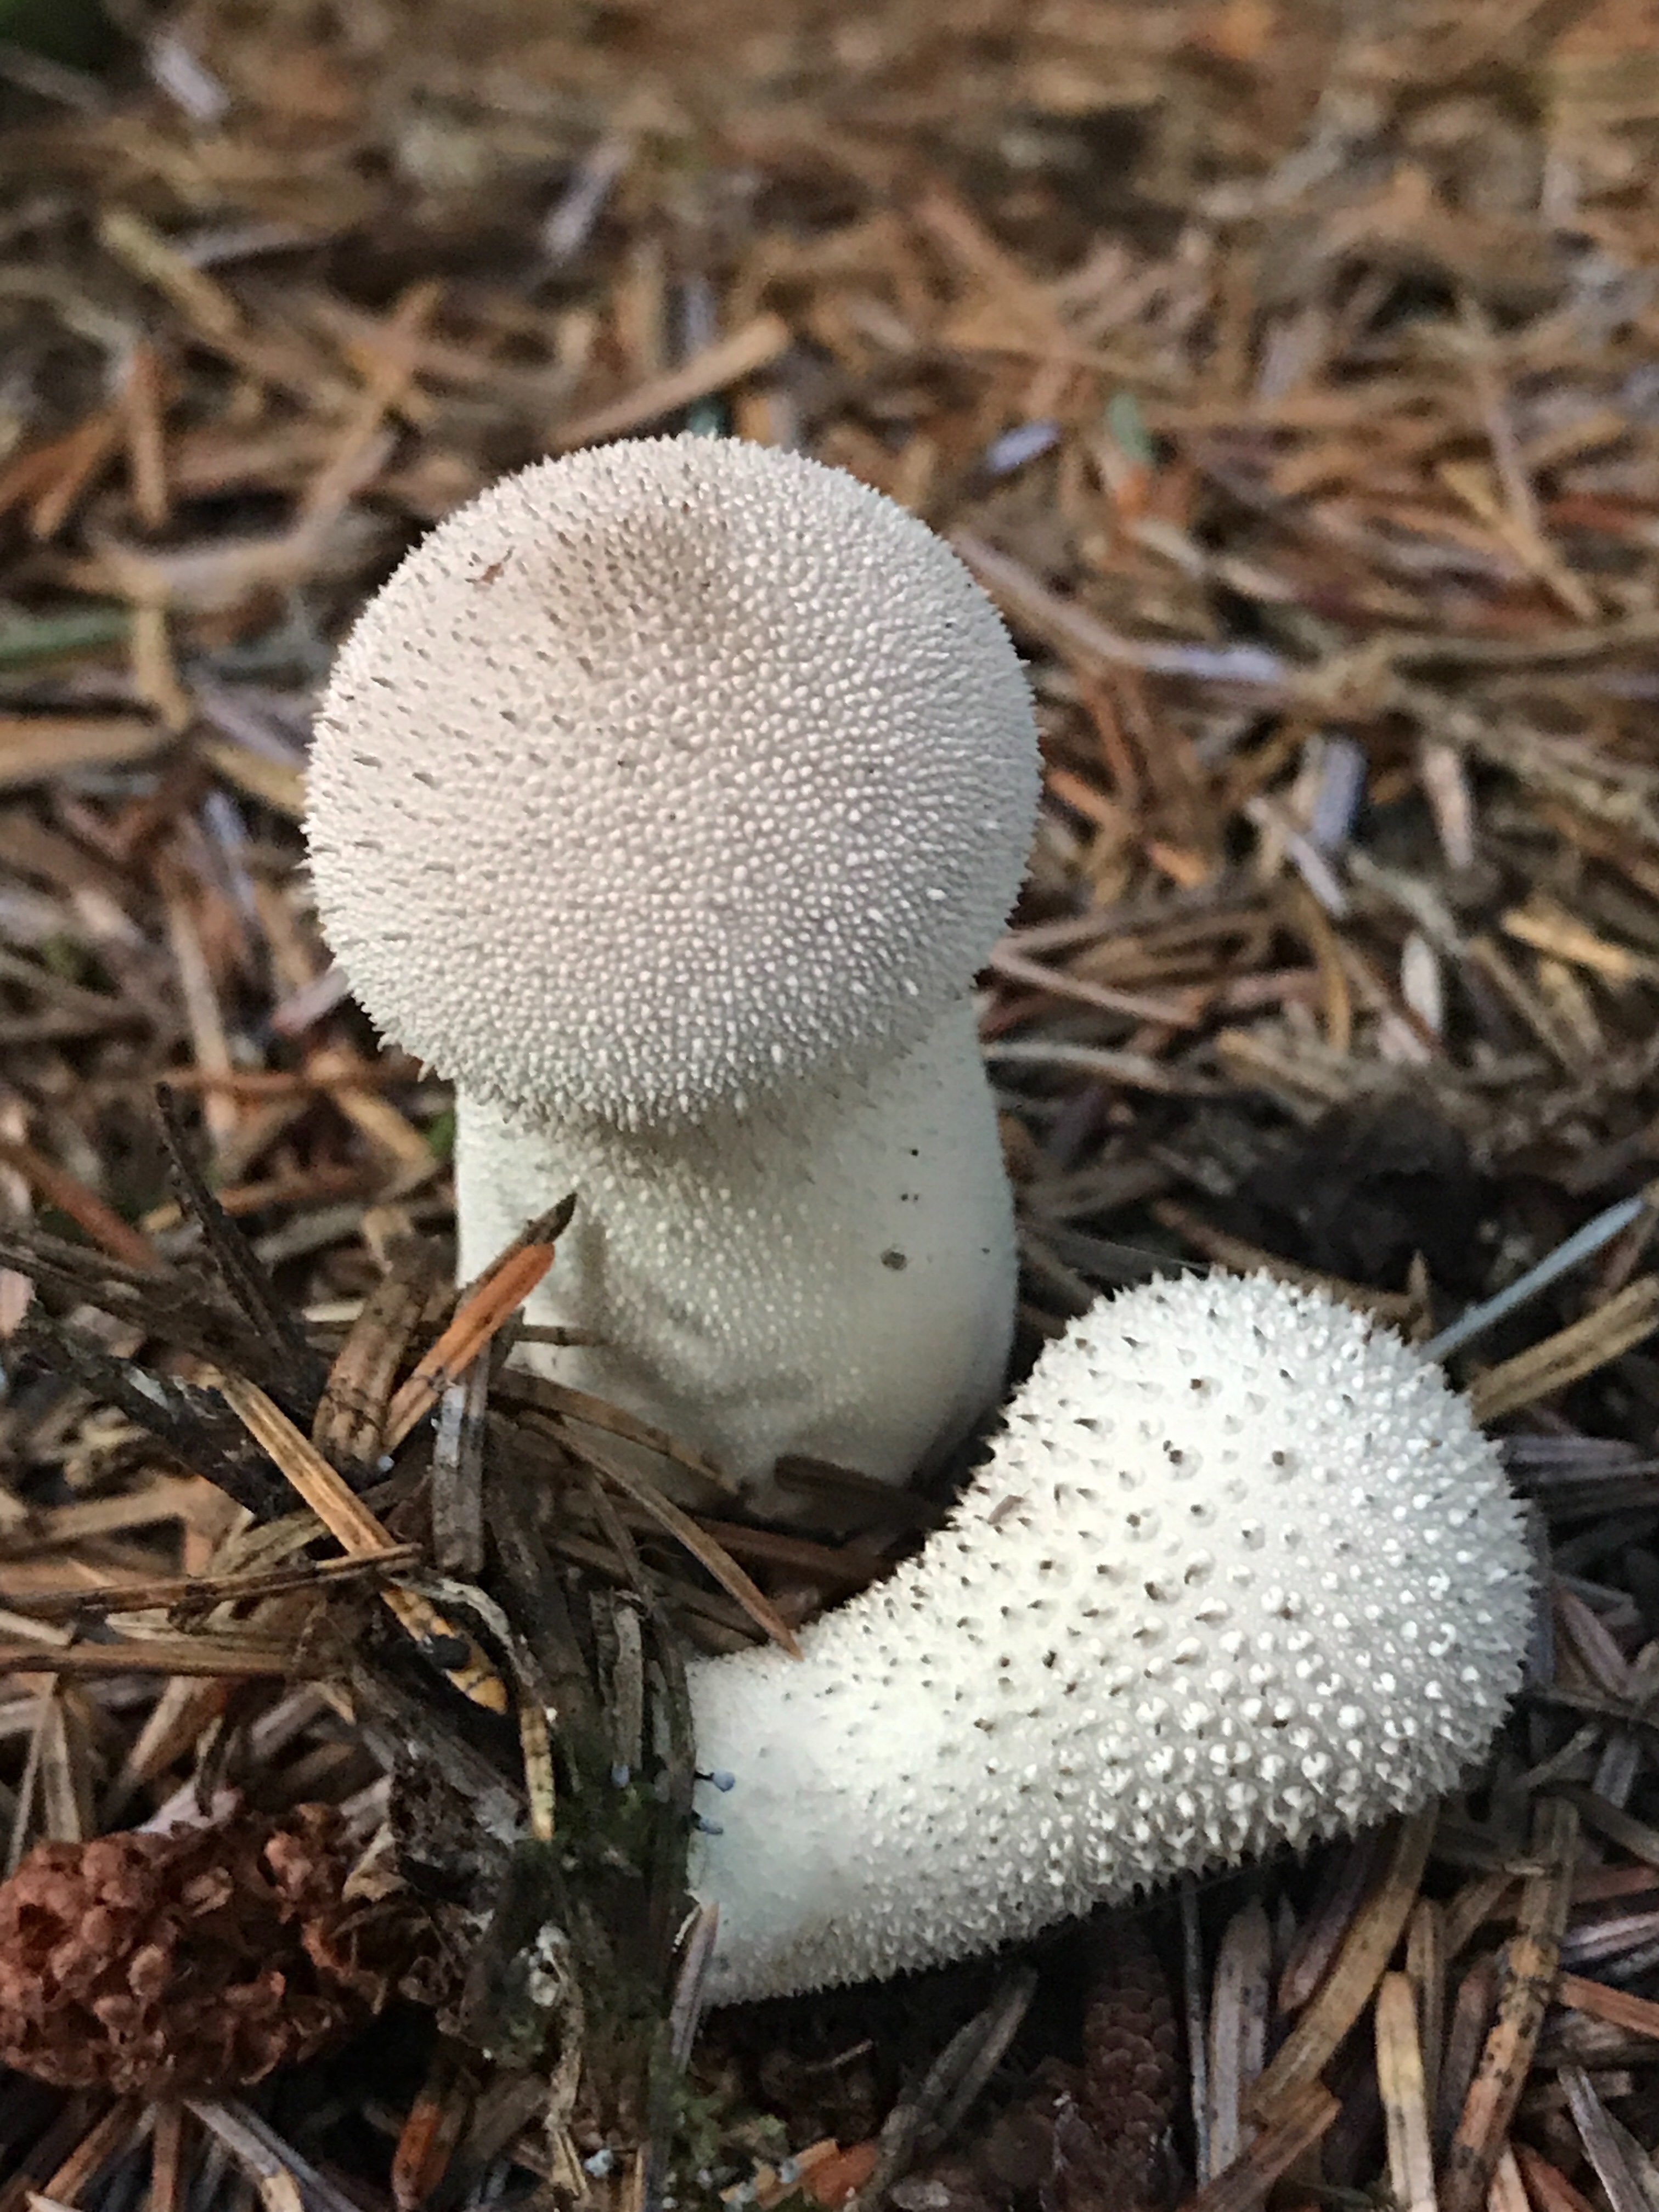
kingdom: Fungi
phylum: Basidiomycota
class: Agaricomycetes
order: Agaricales
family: Lycoperdaceae
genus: Lycoperdon
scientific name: Lycoperdon perlatum
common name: krystal-støvbold
